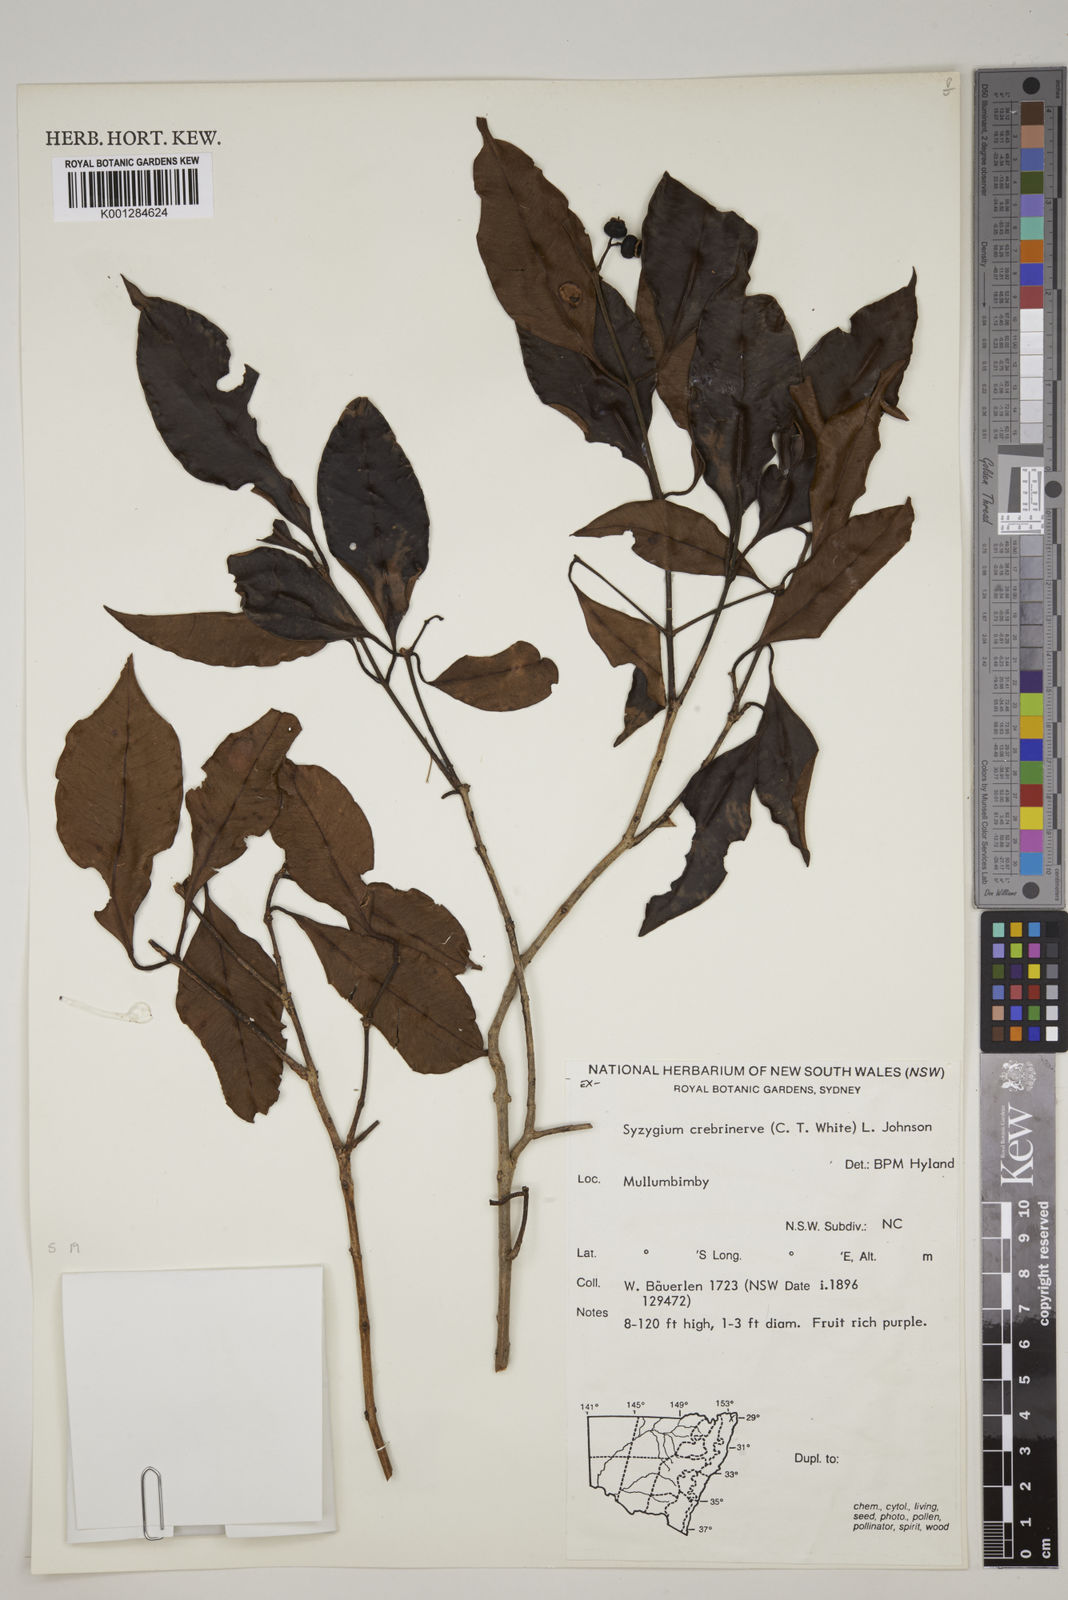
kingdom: Plantae
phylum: Tracheophyta
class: Magnoliopsida
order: Myrtales
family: Myrtaceae
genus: Syzygium
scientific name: Syzygium crebrinerve
